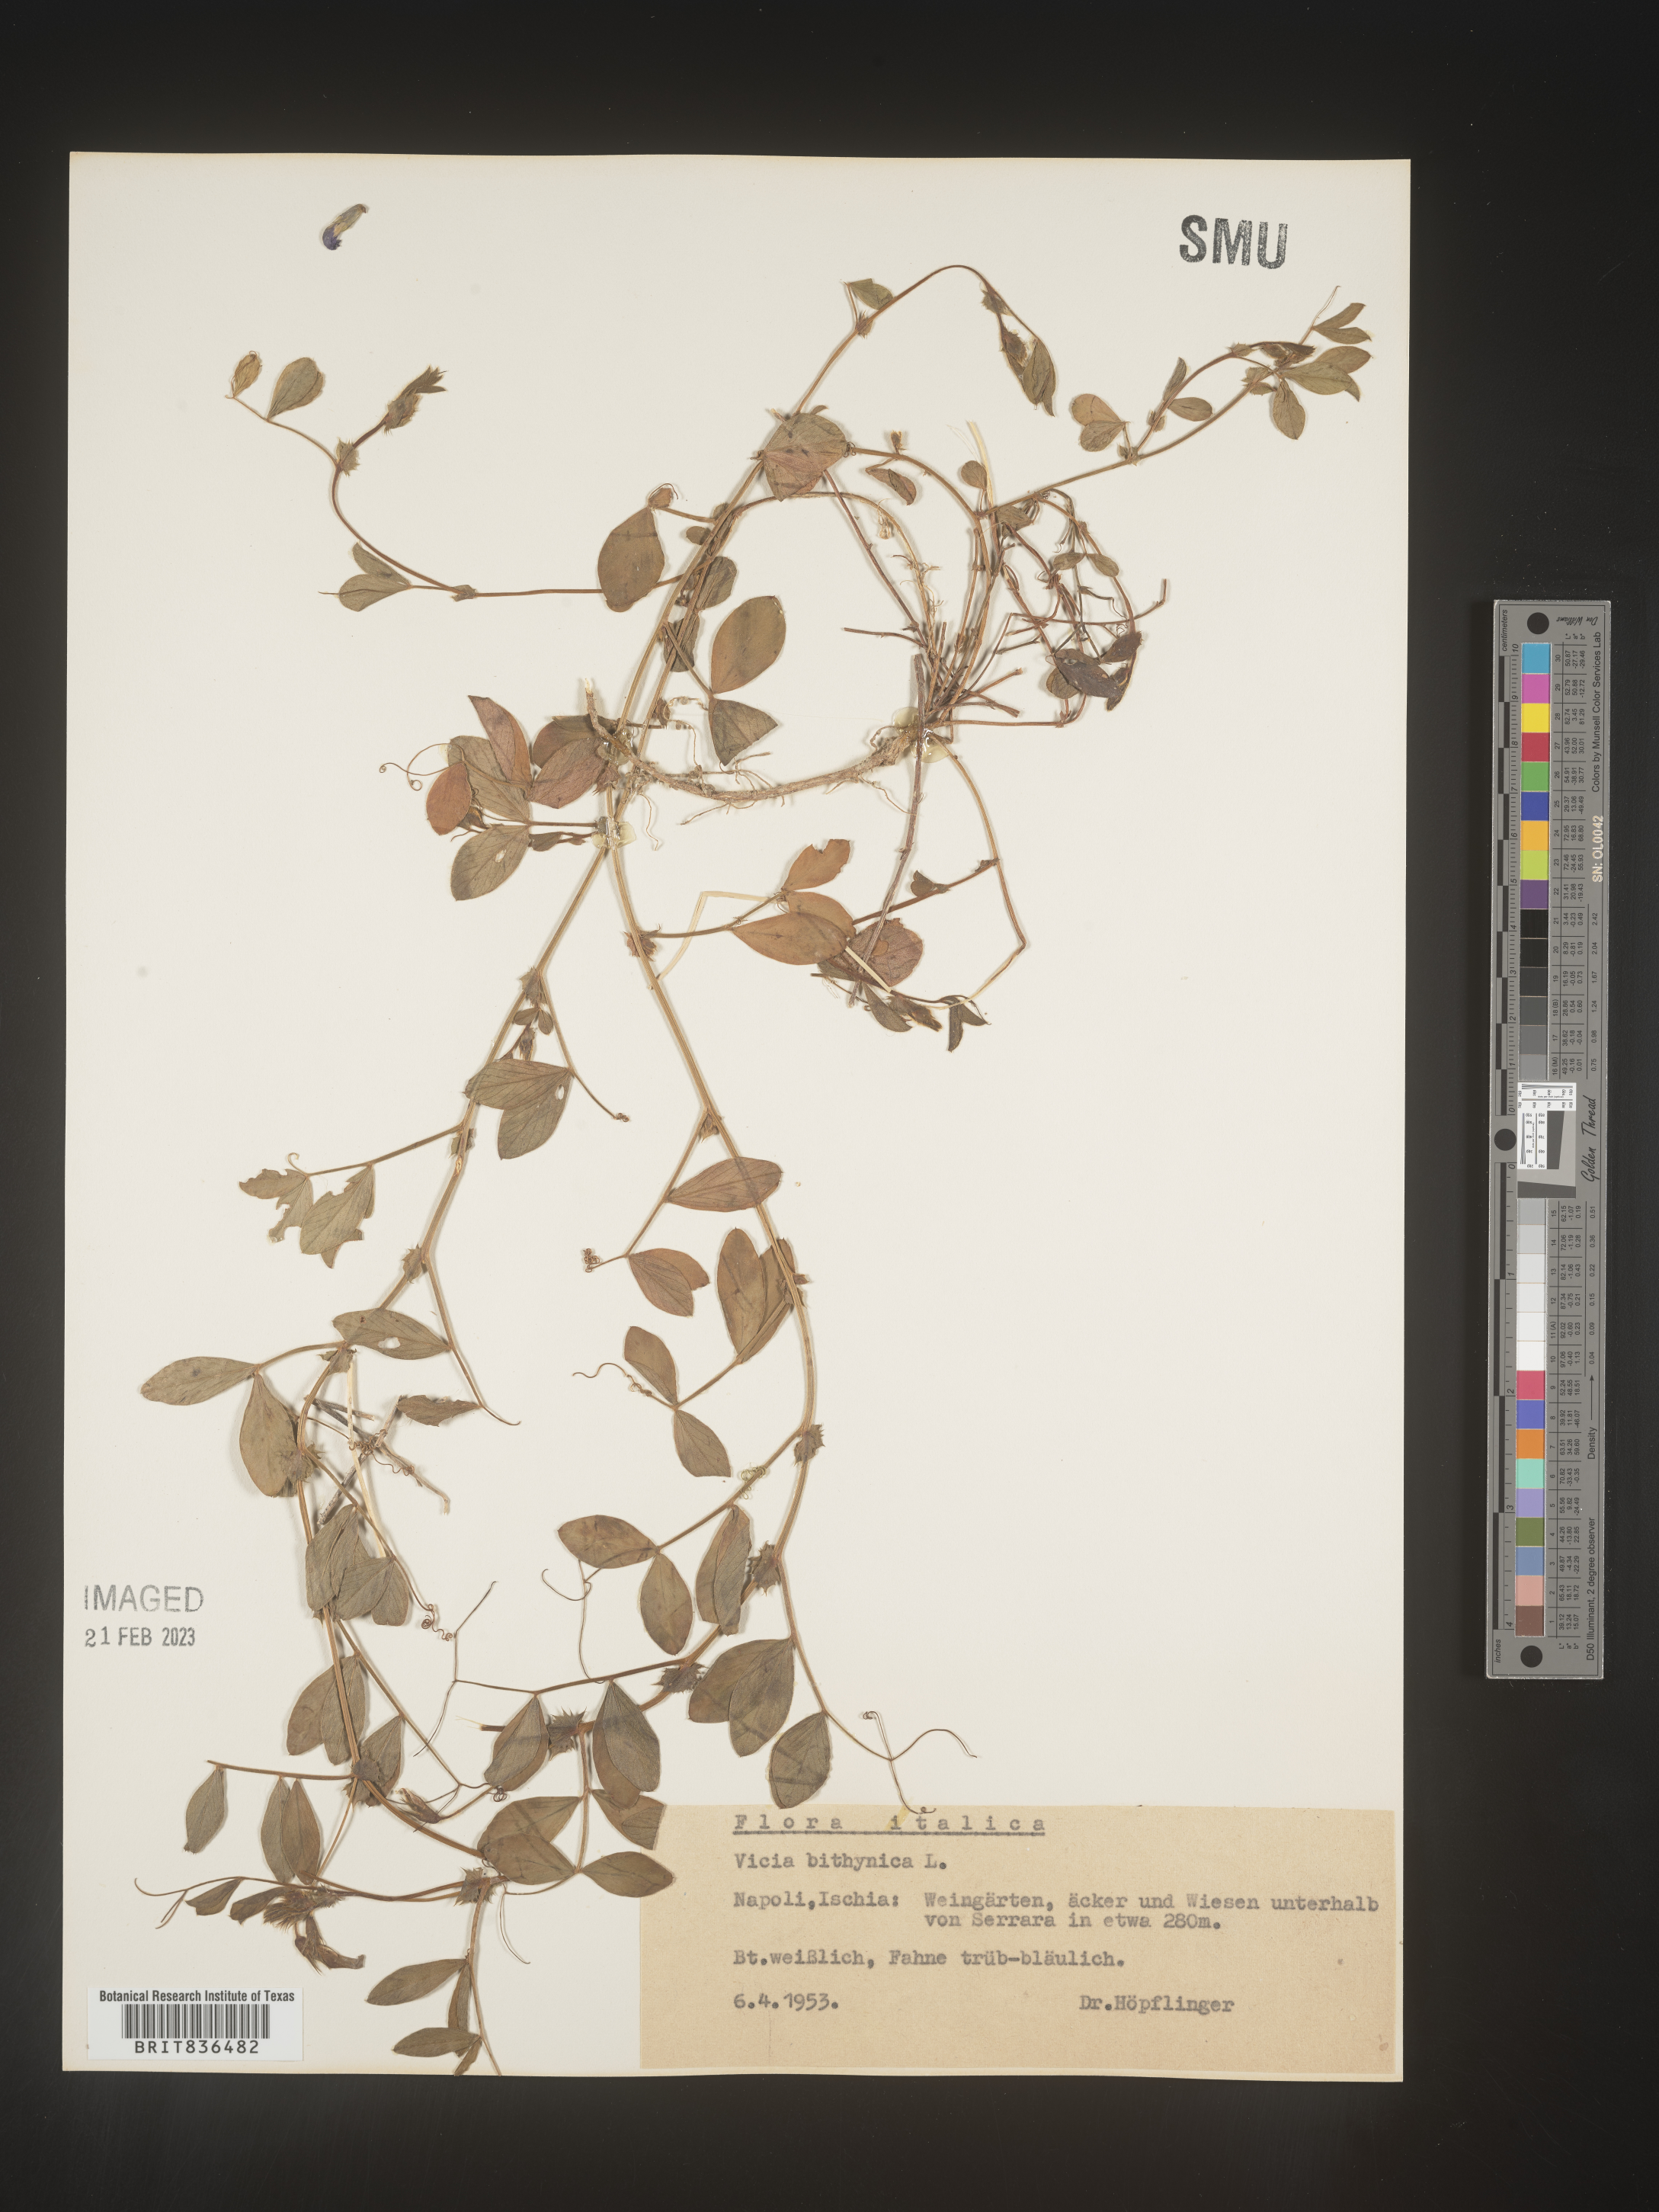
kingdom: Plantae
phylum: Tracheophyta
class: Magnoliopsida
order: Fabales
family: Fabaceae
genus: Vicia
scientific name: Vicia
